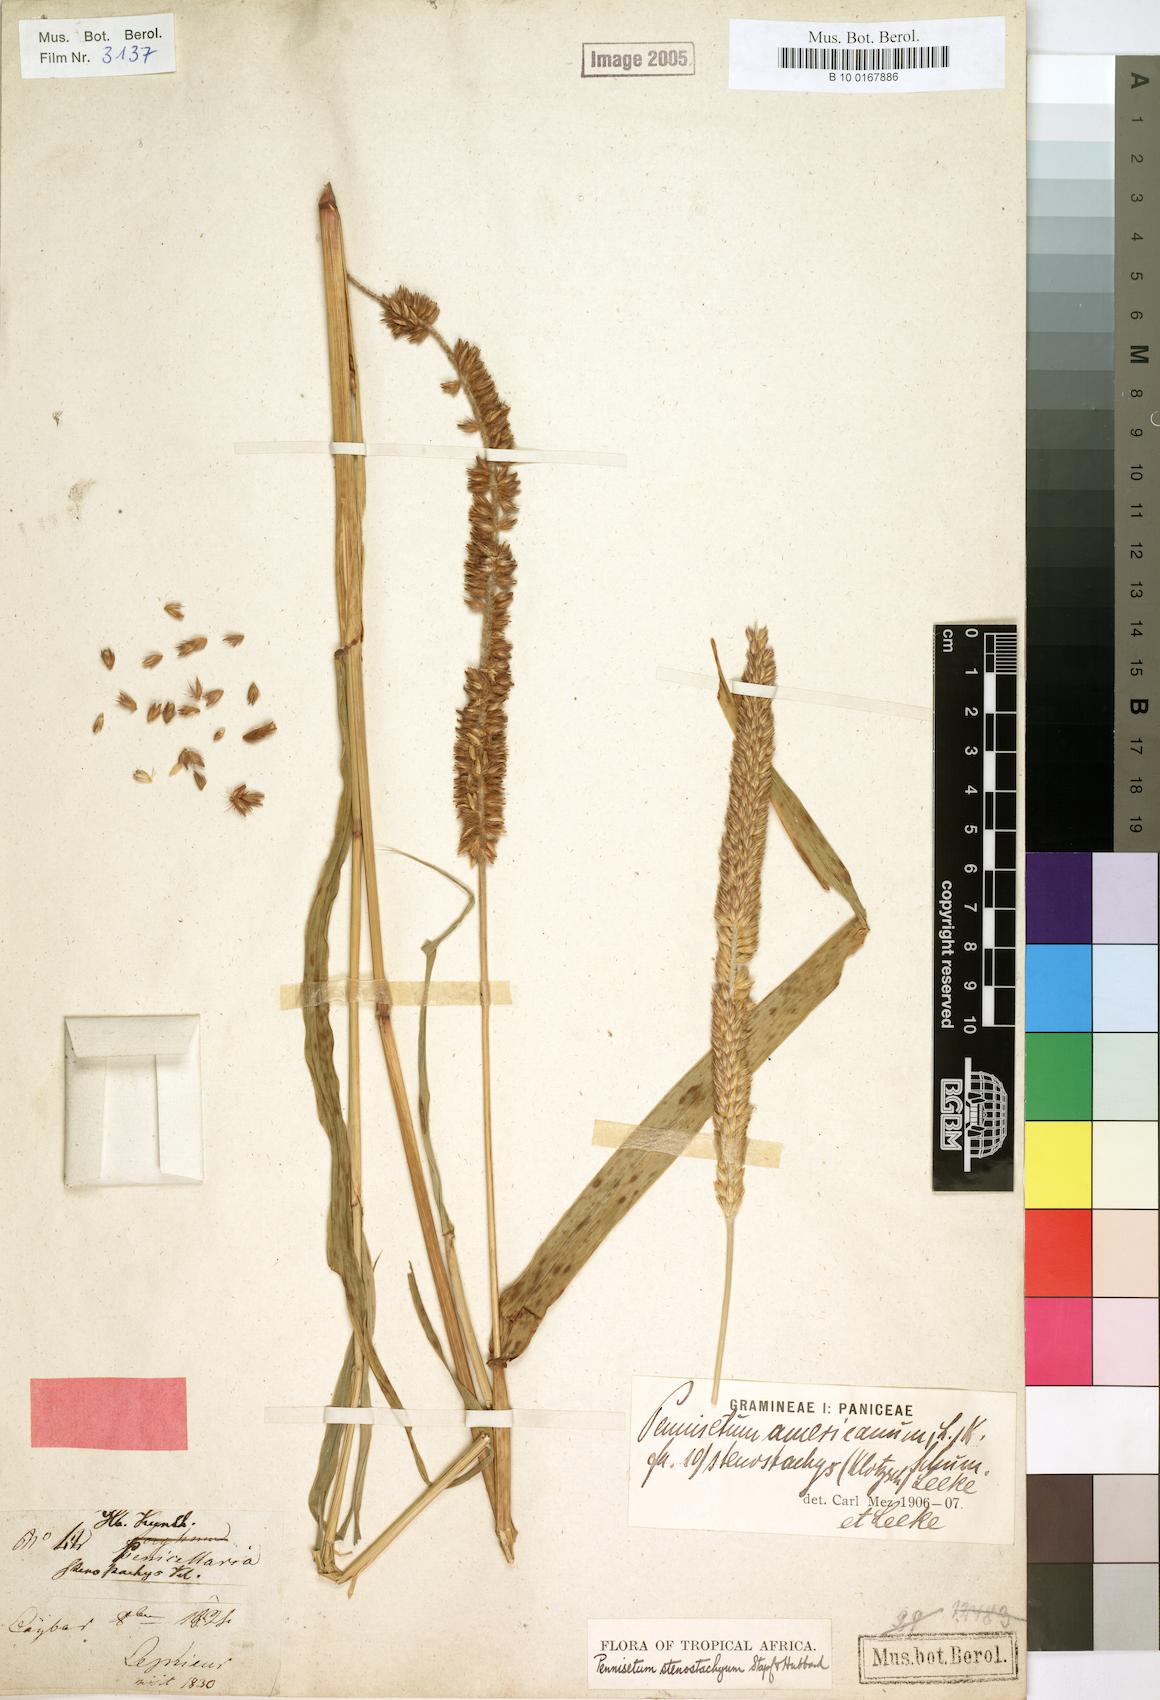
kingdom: Plantae
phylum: Tracheophyta
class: Liliopsida
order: Poales
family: Poaceae
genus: Cenchrus
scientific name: Cenchrus sieberianus
